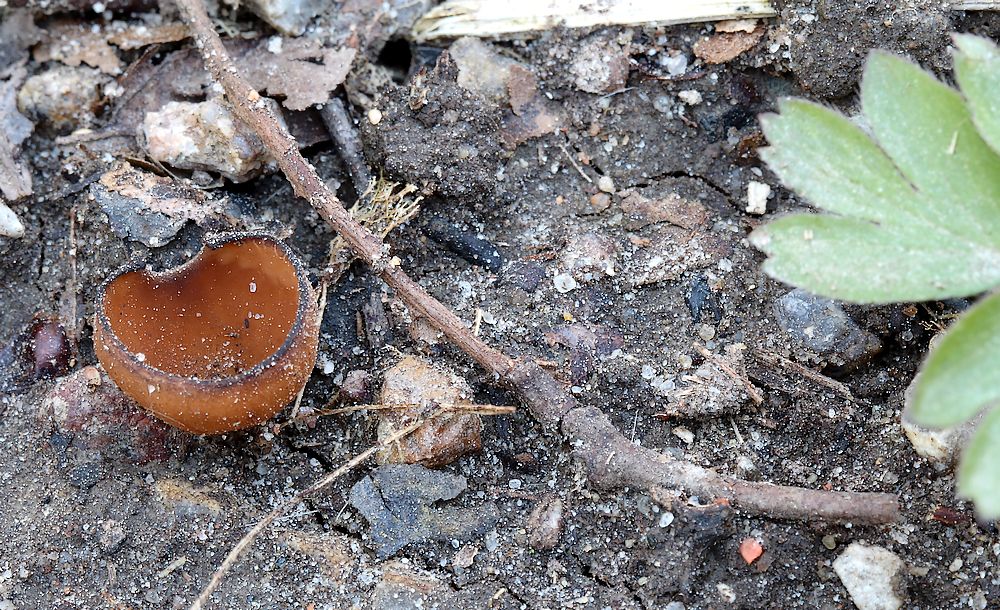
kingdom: Fungi
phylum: Ascomycota
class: Leotiomycetes
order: Helotiales
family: Sclerotiniaceae
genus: Dumontinia
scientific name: Dumontinia tuberosa
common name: anemone-knoldskive
